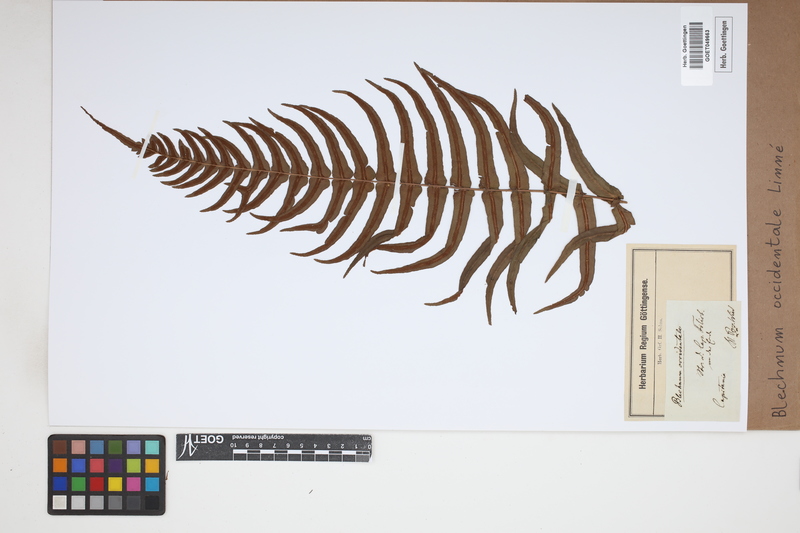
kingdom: Plantae
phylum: Tracheophyta
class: Polypodiopsida
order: Polypodiales
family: Blechnaceae
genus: Blechnum
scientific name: Blechnum occidentale
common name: Hammock fern
